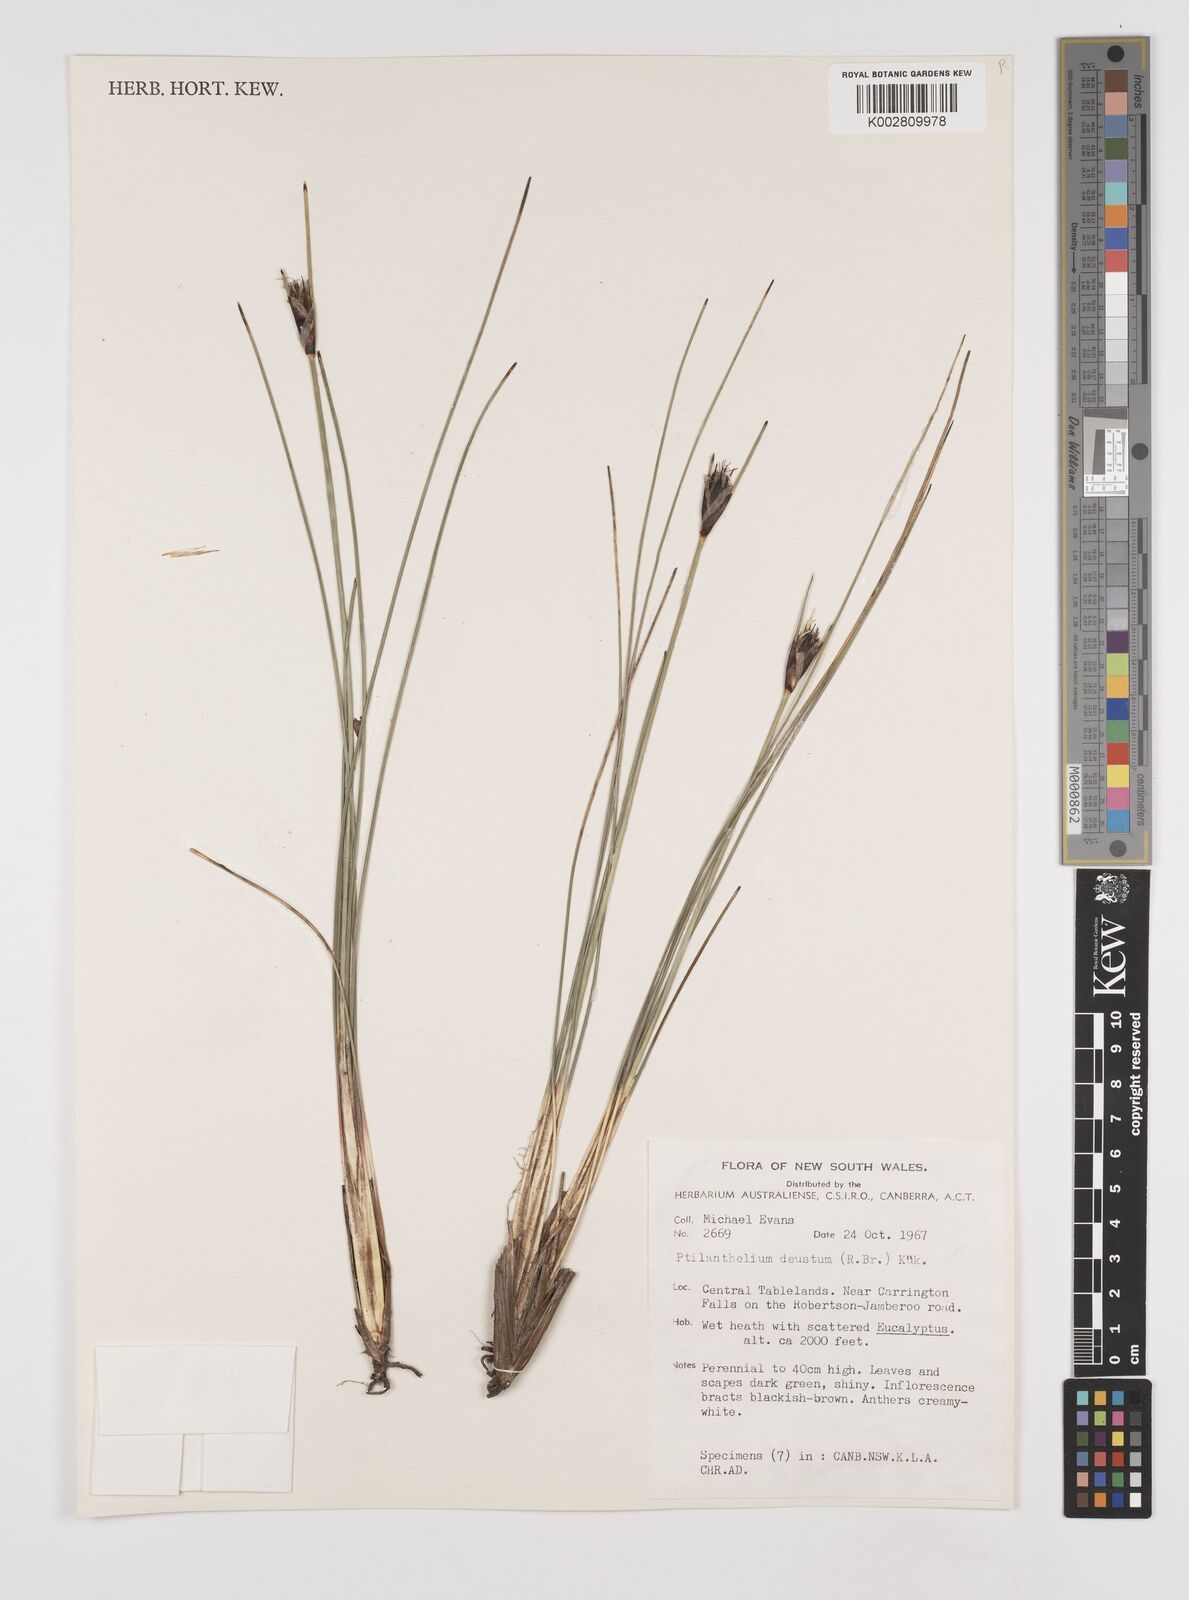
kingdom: Plantae
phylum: Tracheophyta
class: Liliopsida
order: Poales
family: Cyperaceae
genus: Ptilothrix
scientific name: Ptilothrix deusta
